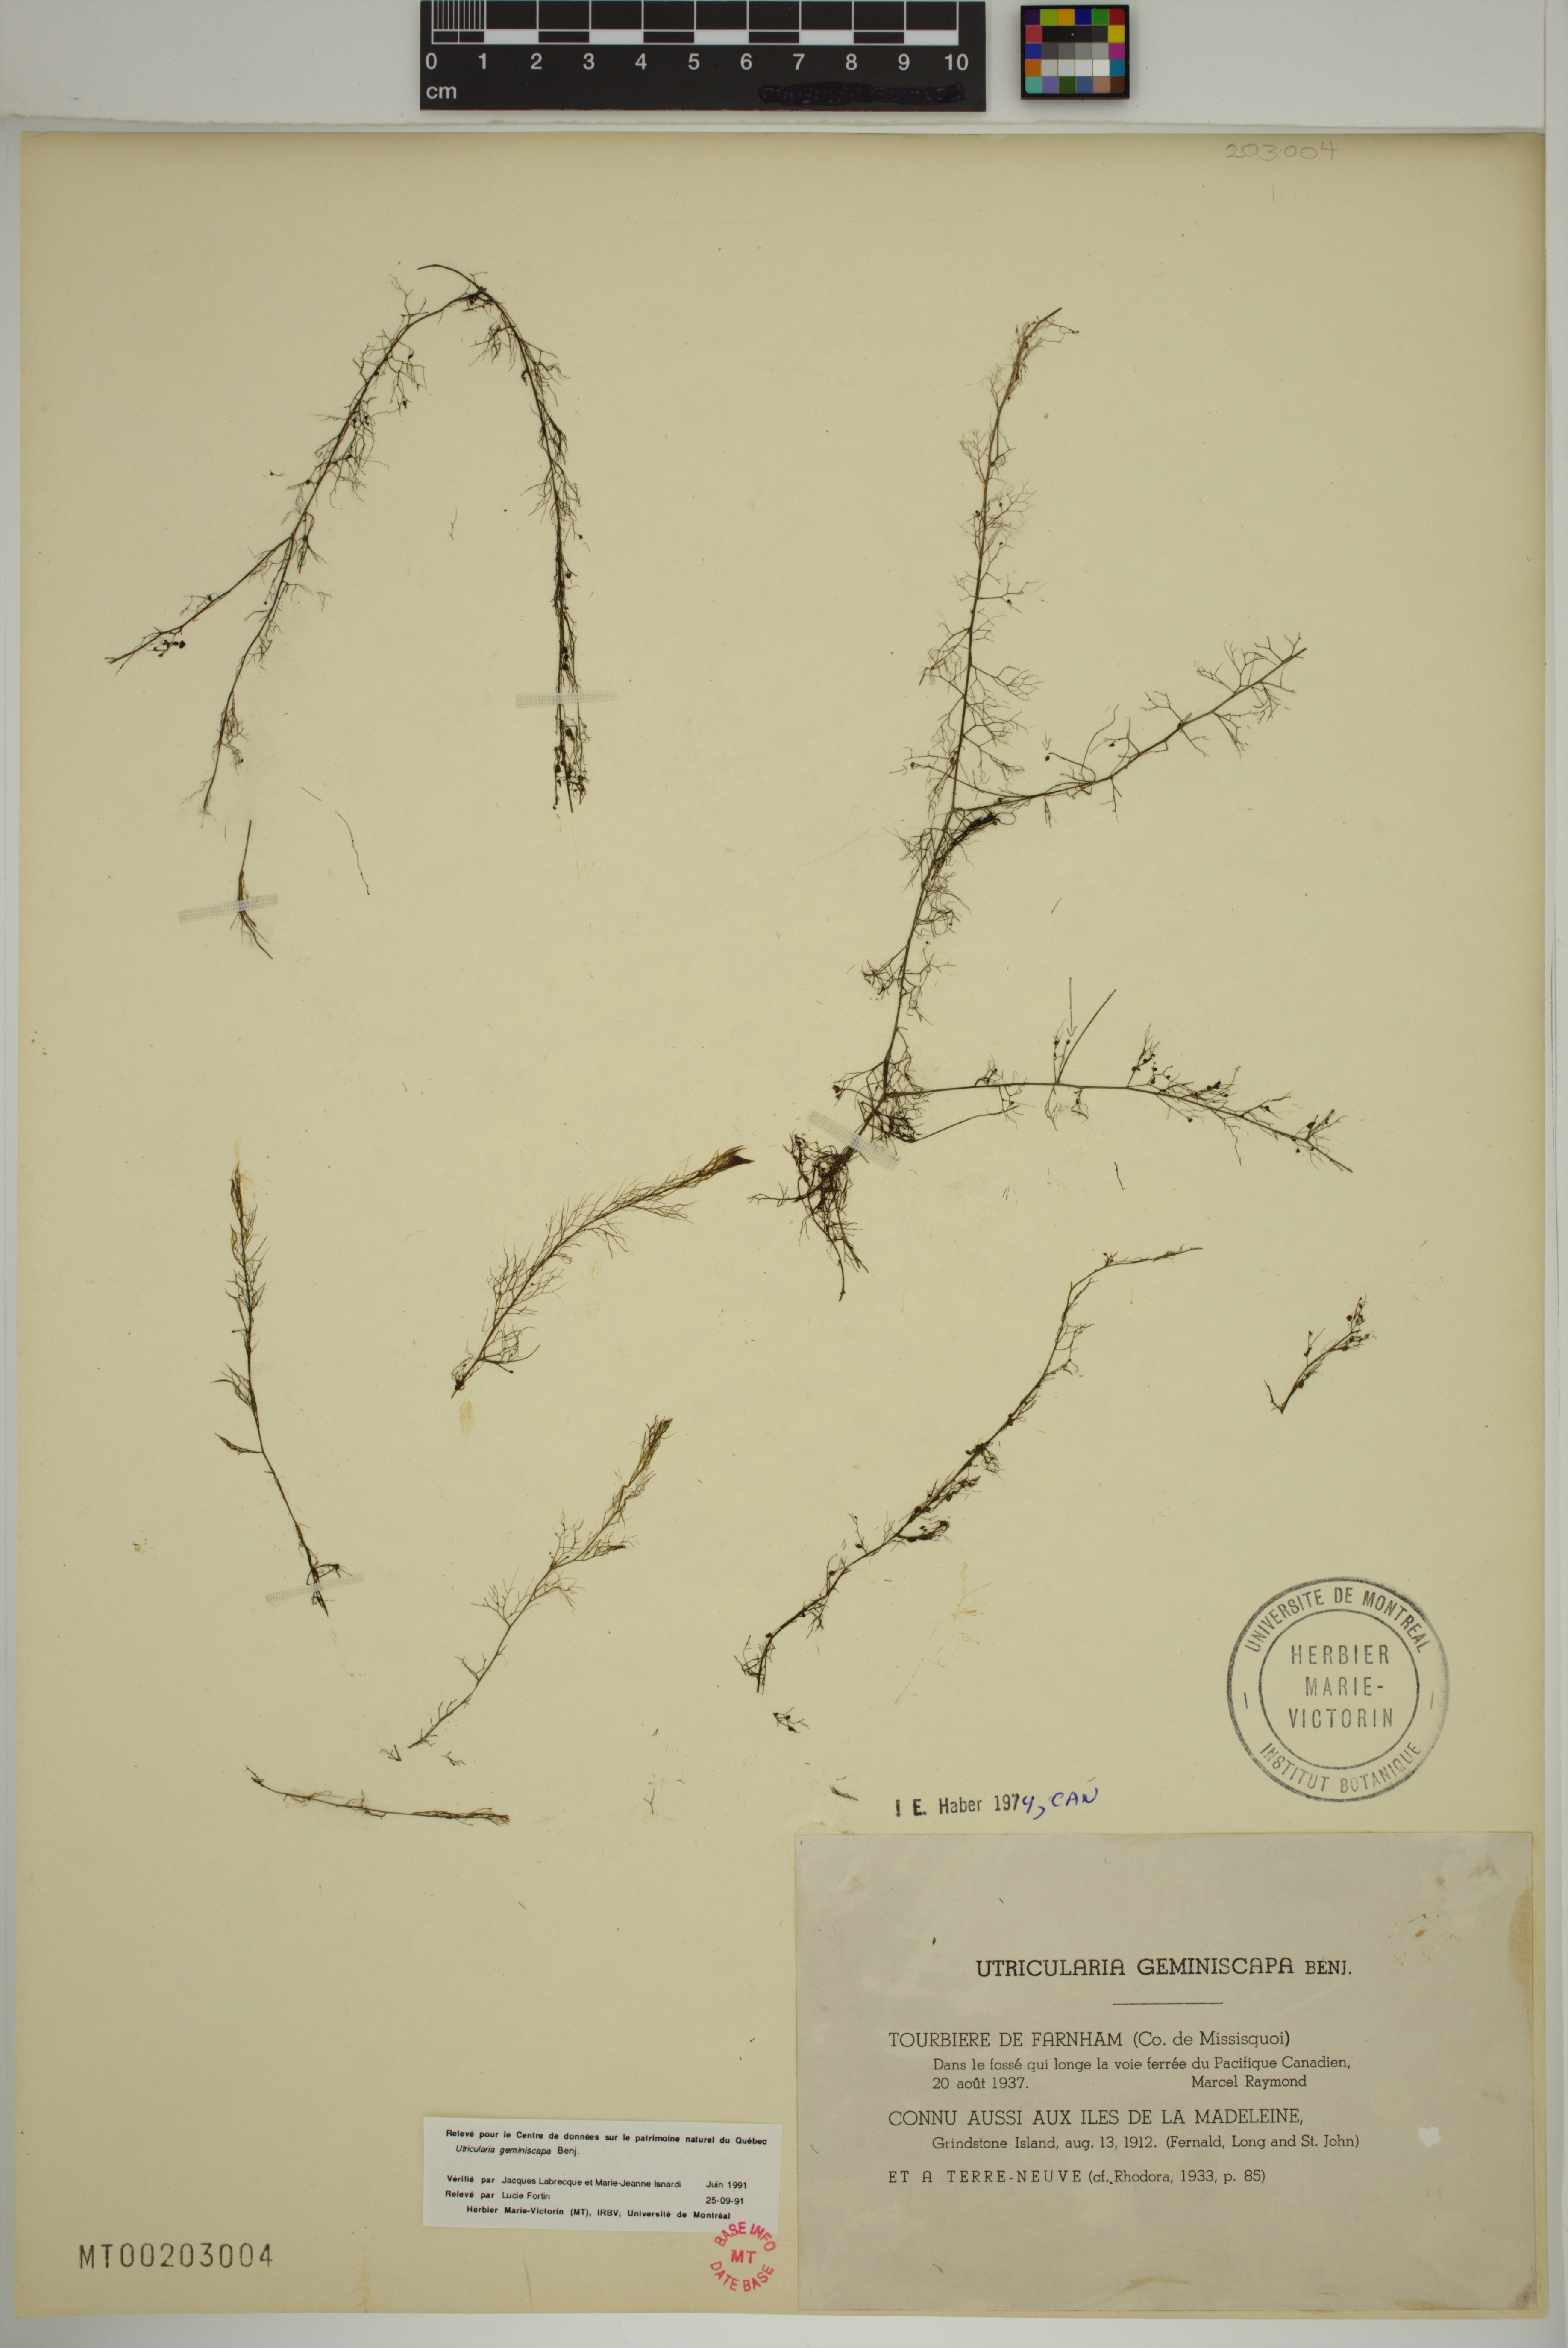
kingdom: Plantae
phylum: Tracheophyta
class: Magnoliopsida
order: Lamiales
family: Lentibulariaceae
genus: Utricularia
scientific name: Utricularia geminiscapa
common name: Hidden-fruit bladderwort
